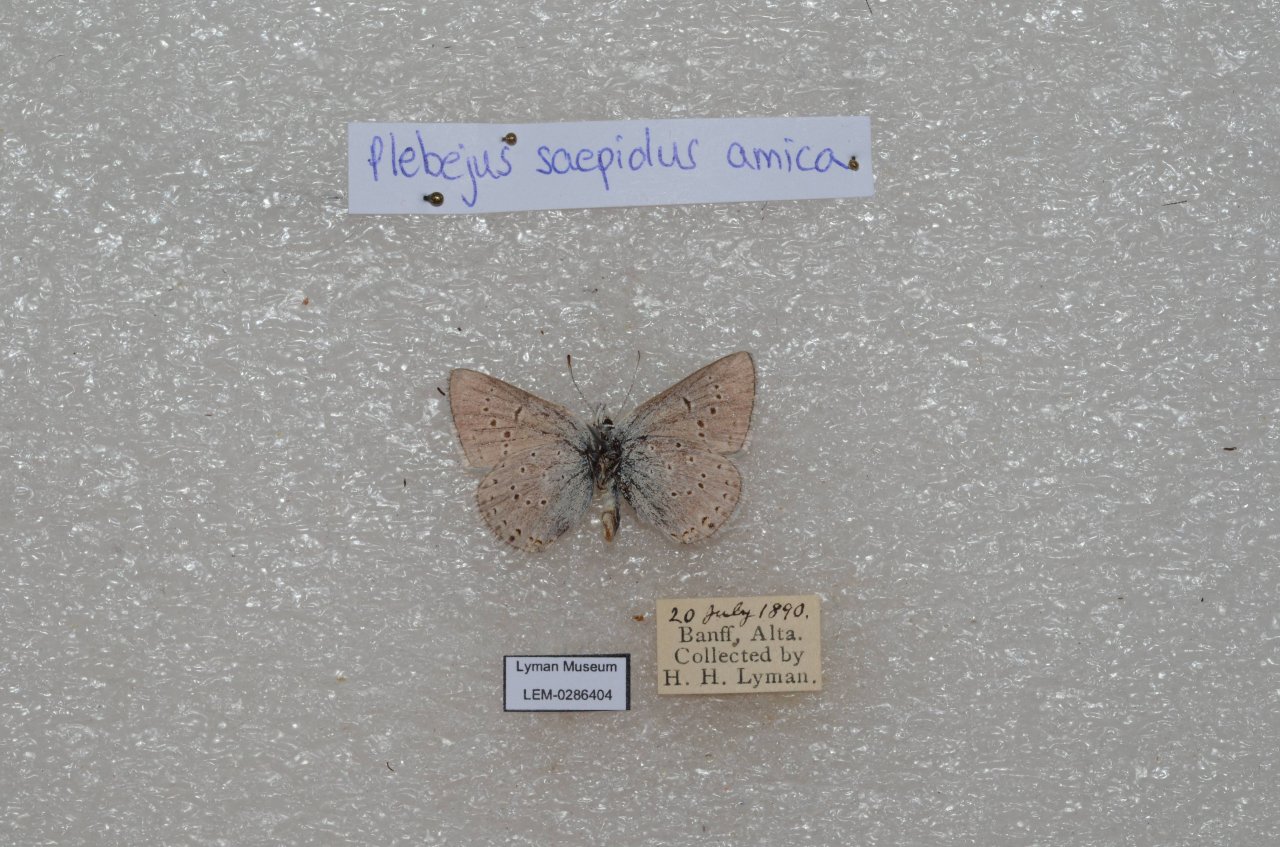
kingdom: Animalia
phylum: Arthropoda
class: Insecta
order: Lepidoptera
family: Lycaenidae
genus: Plebejus
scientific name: Plebejus saepiolus
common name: Greenish Blue
